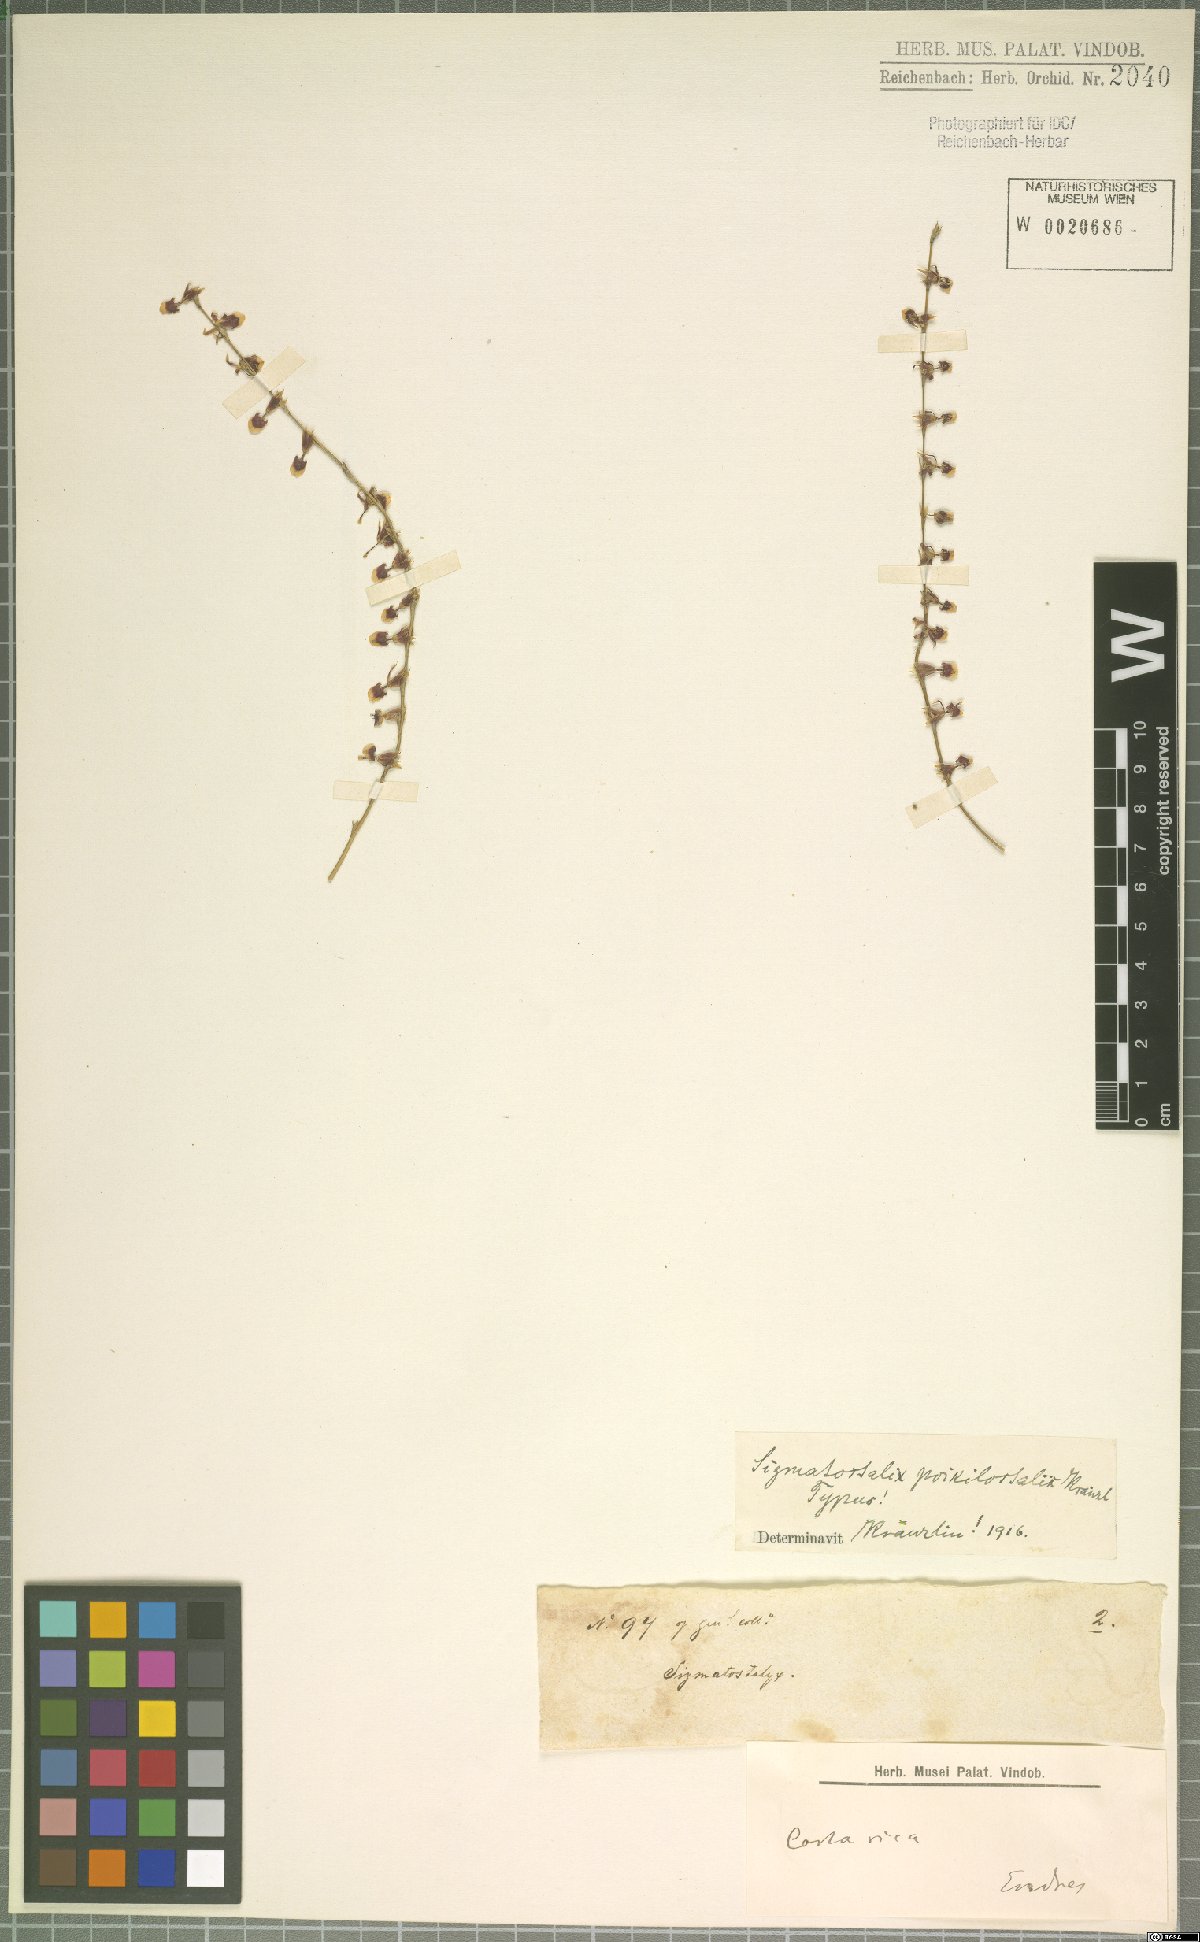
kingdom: Plantae
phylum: Tracheophyta
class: Liliopsida
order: Asparagales
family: Orchidaceae
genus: Oncidium
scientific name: Oncidium poikilostalix
